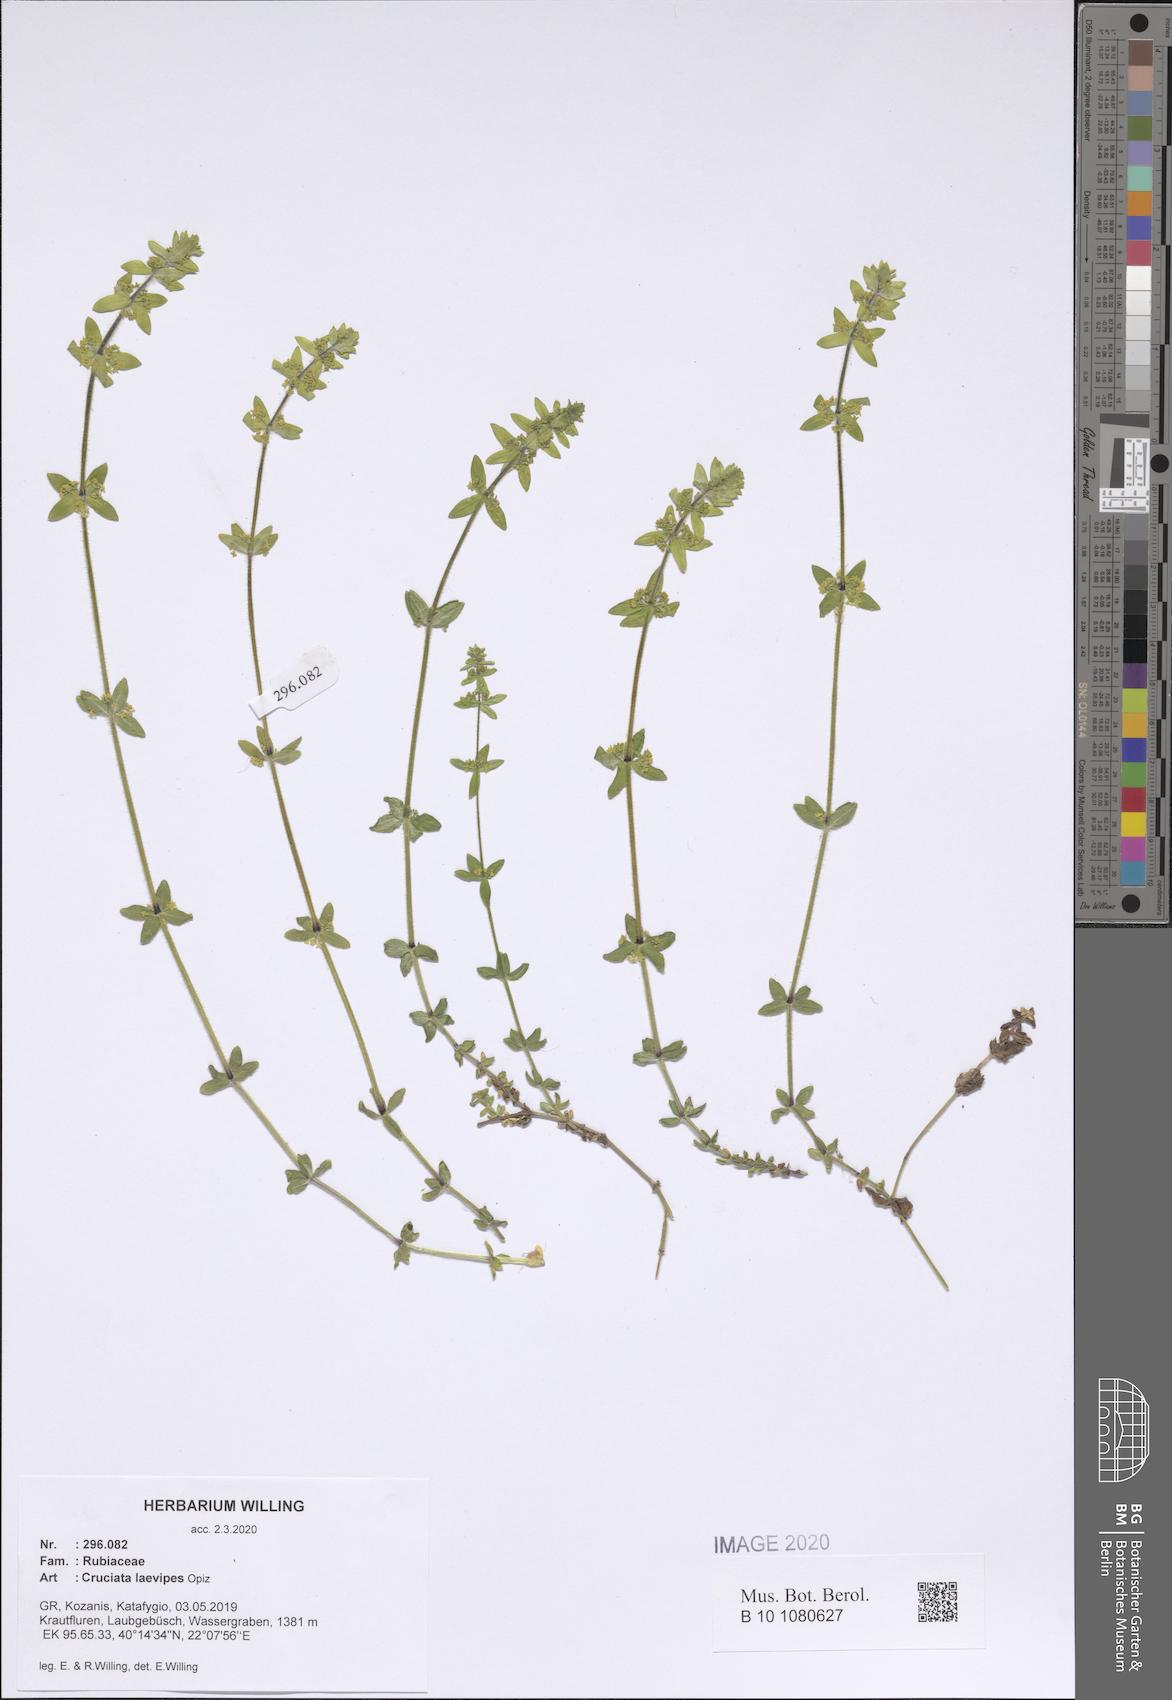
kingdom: Plantae
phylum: Tracheophyta
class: Magnoliopsida
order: Gentianales
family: Rubiaceae
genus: Cruciata
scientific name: Cruciata laevipes
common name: Crosswort
